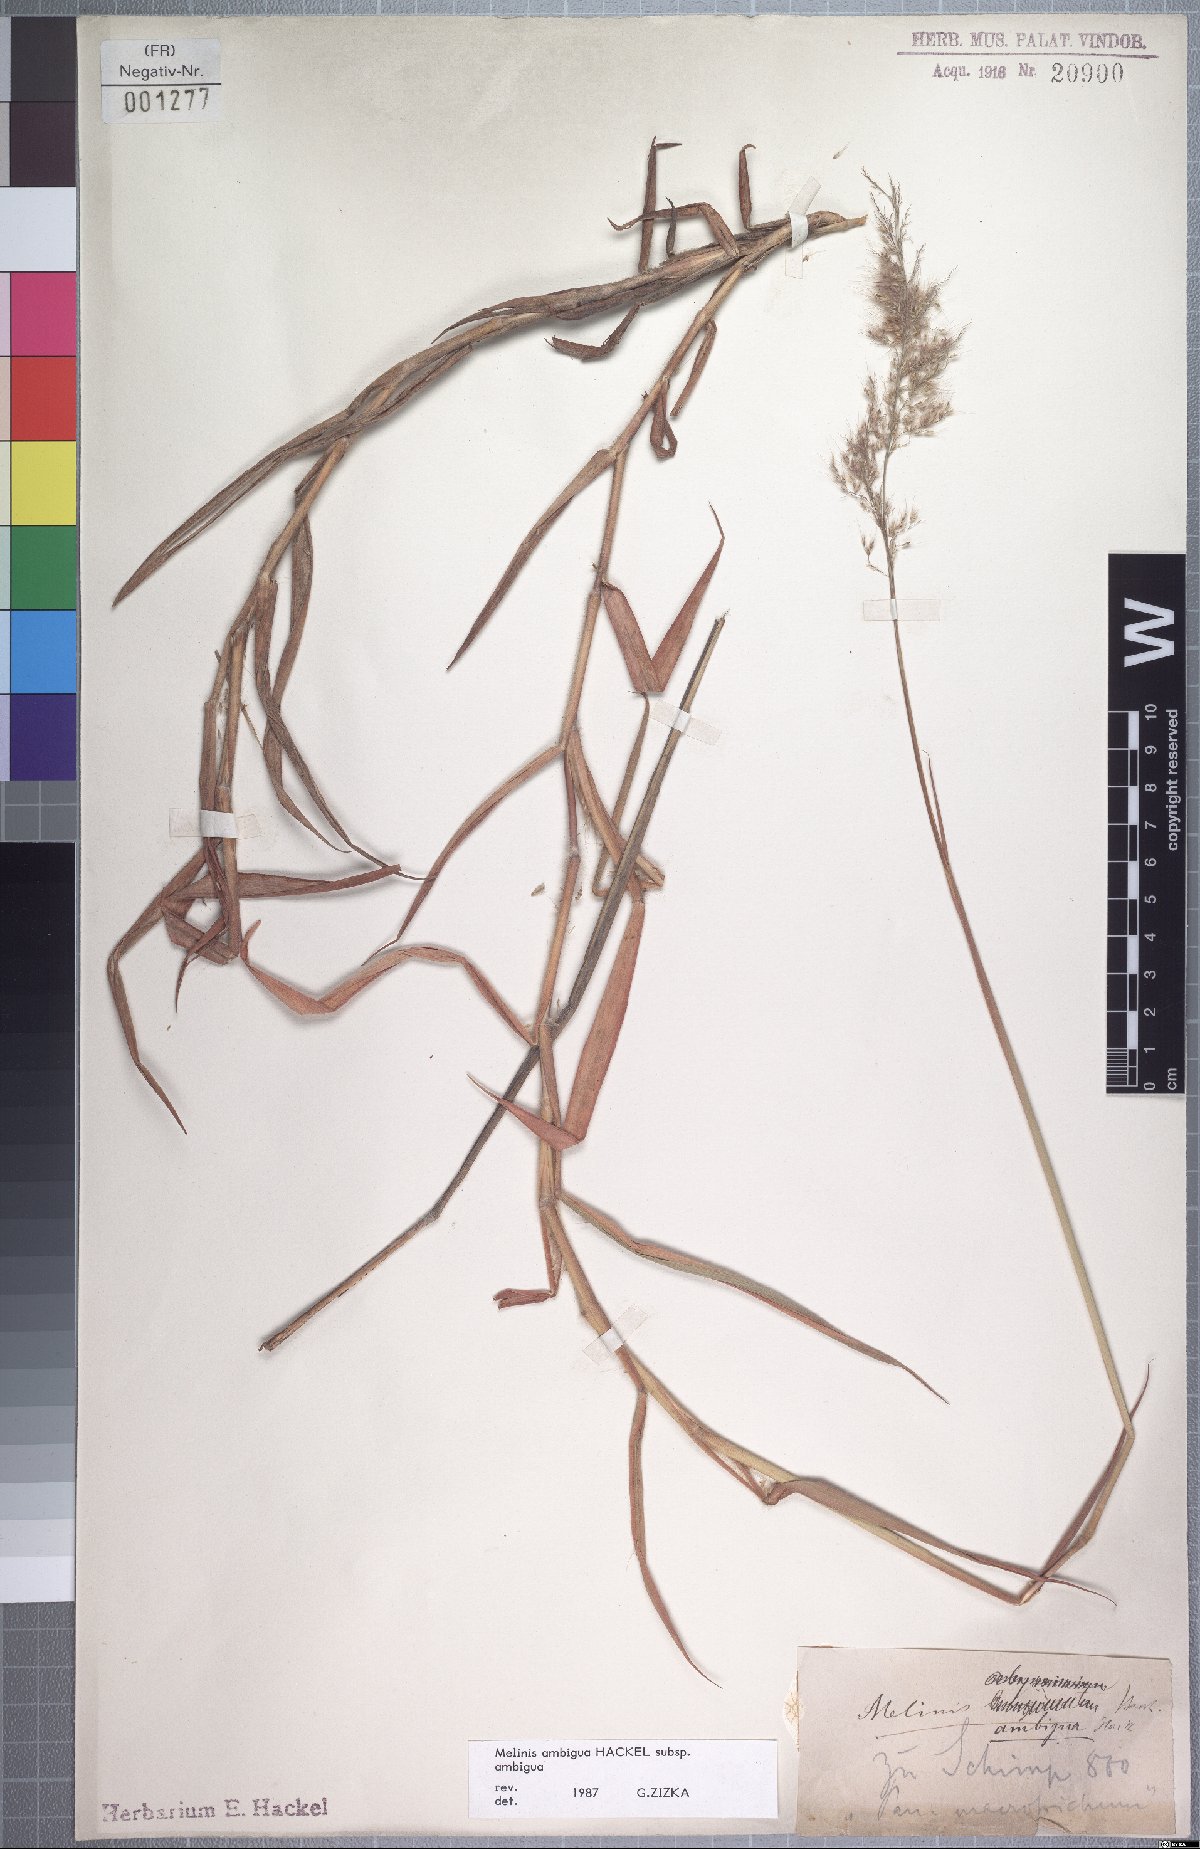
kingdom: Plantae
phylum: Tracheophyta
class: Liliopsida
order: Poales
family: Poaceae
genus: Melinis
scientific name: Melinis ambigua
